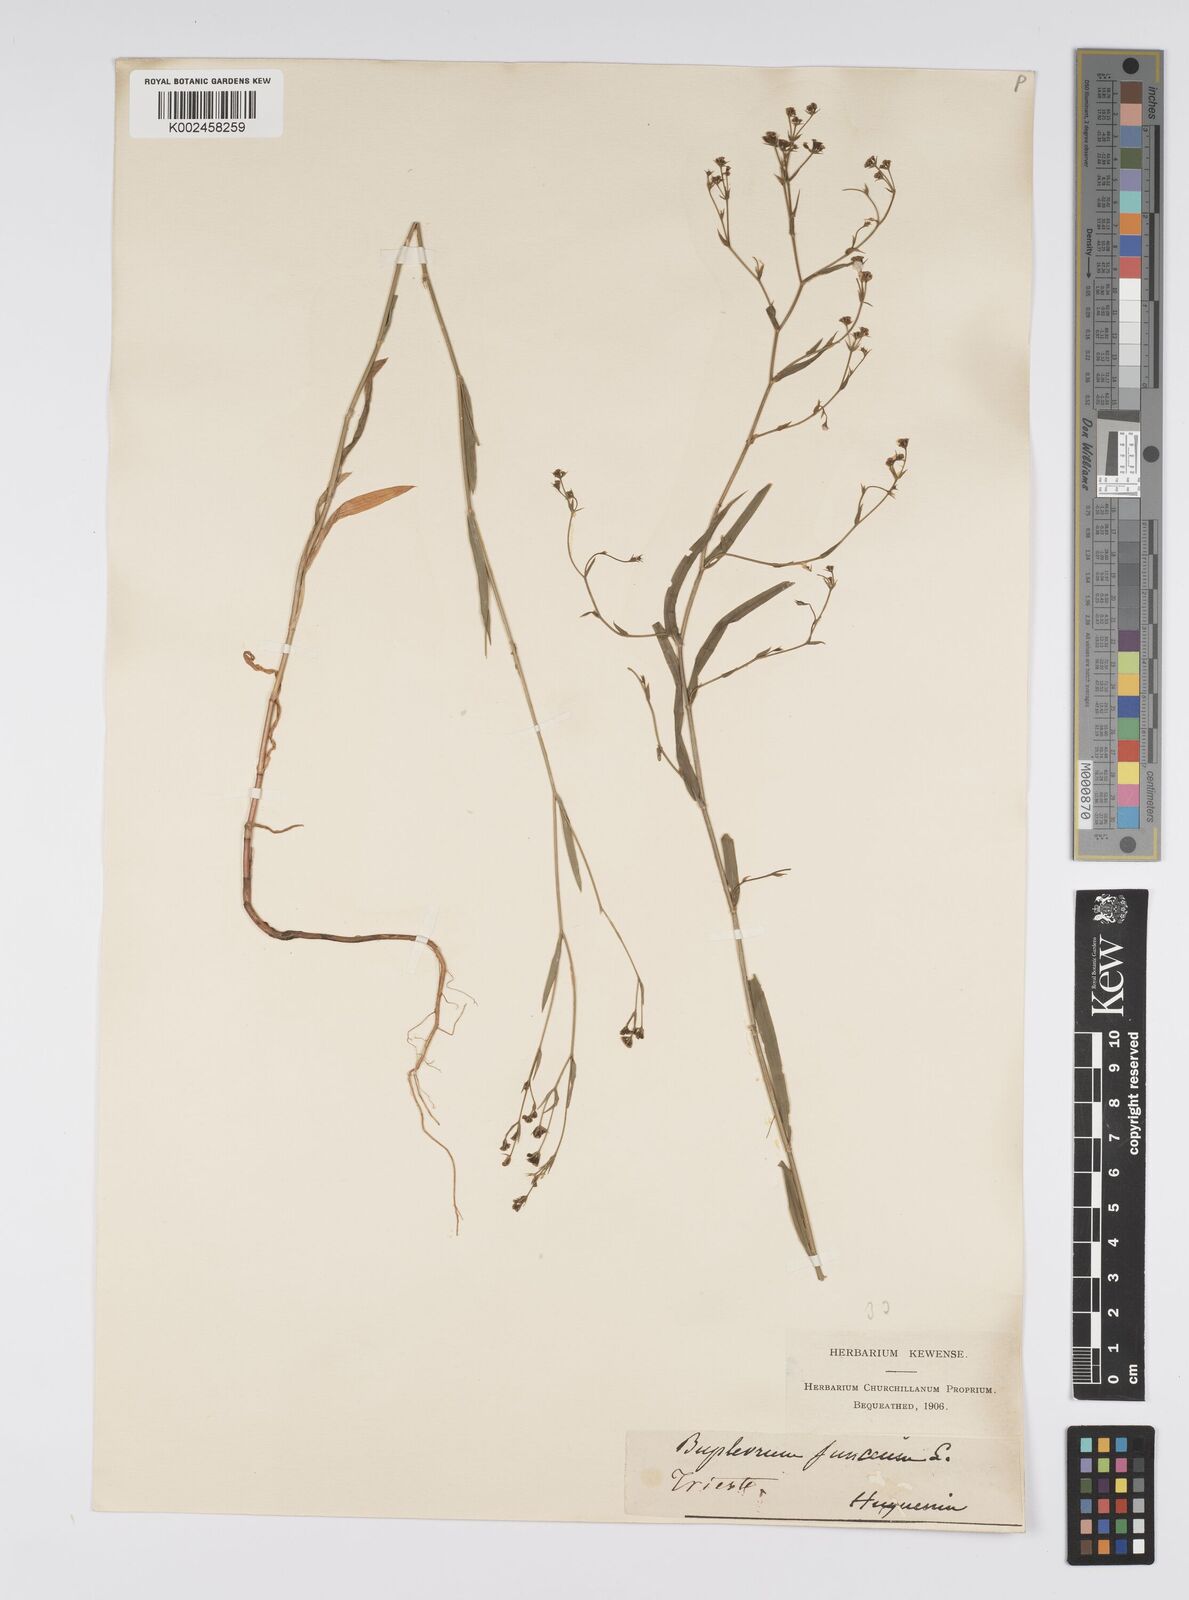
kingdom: Plantae
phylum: Tracheophyta
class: Magnoliopsida
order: Apiales
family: Apiaceae
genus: Bupleurum
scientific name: Bupleurum praealtum
